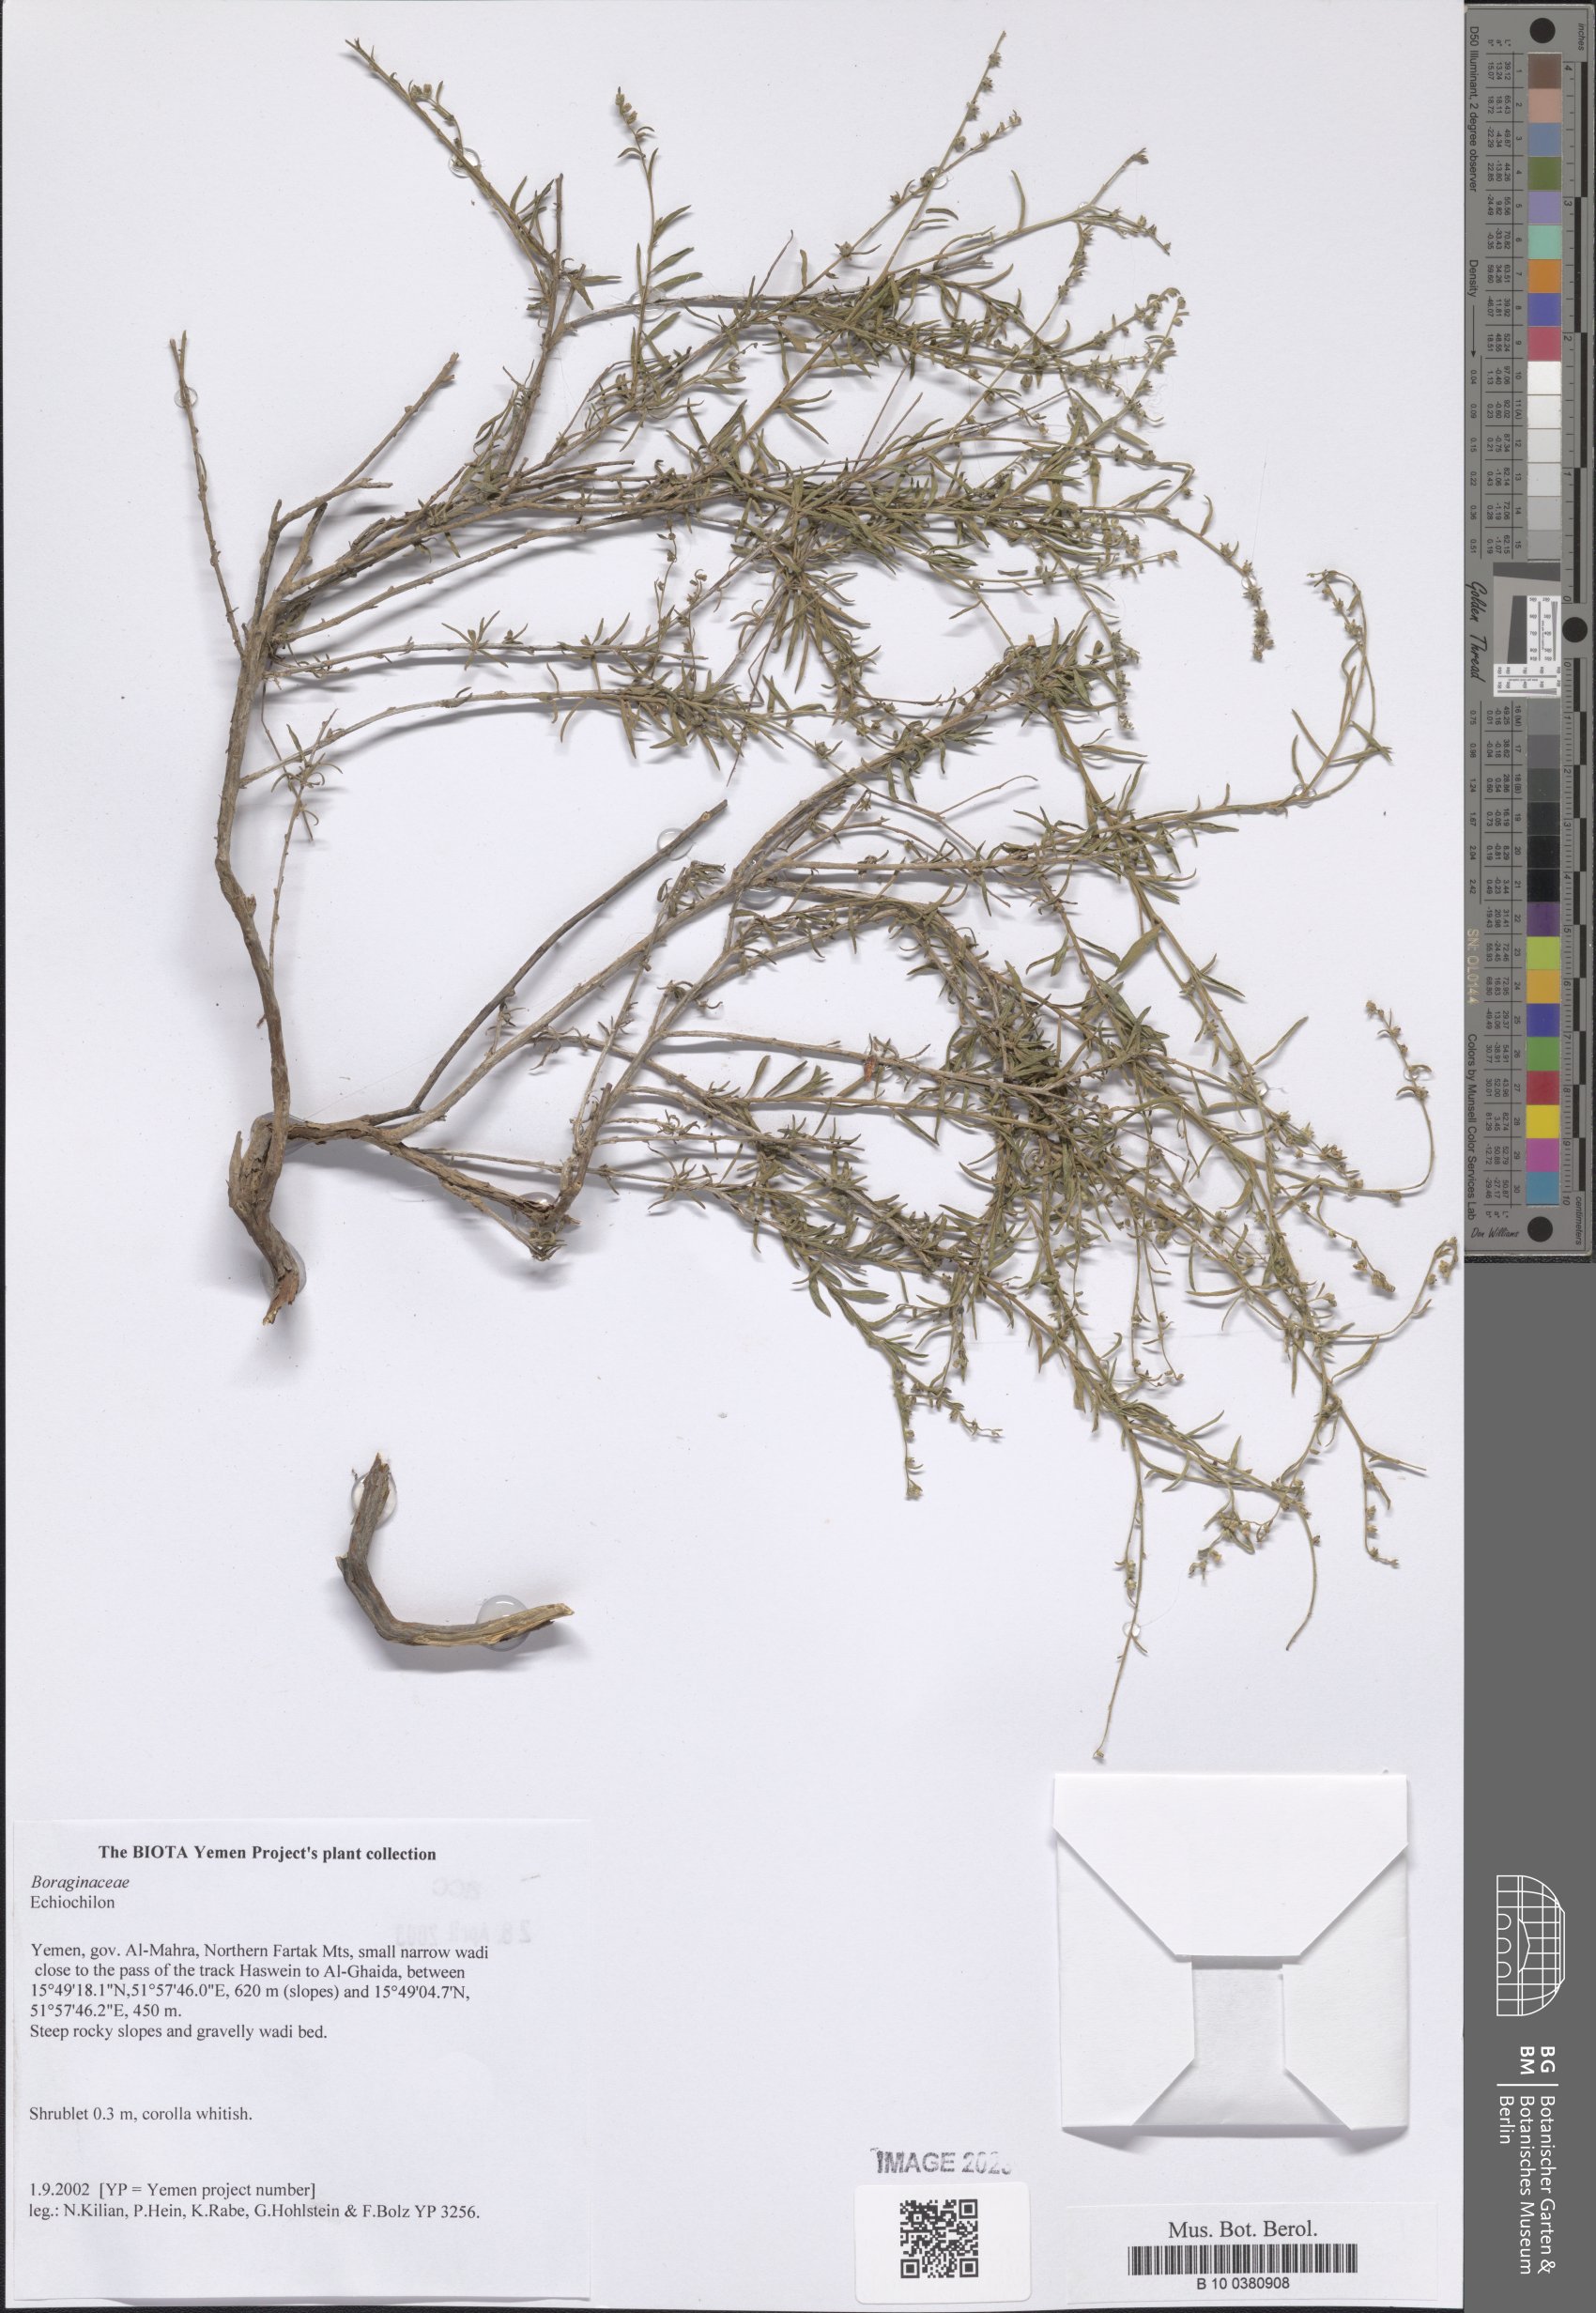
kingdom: Plantae
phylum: Tracheophyta
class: Magnoliopsida
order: Boraginales
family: Boraginaceae
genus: Echiochilon
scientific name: Echiochilon
